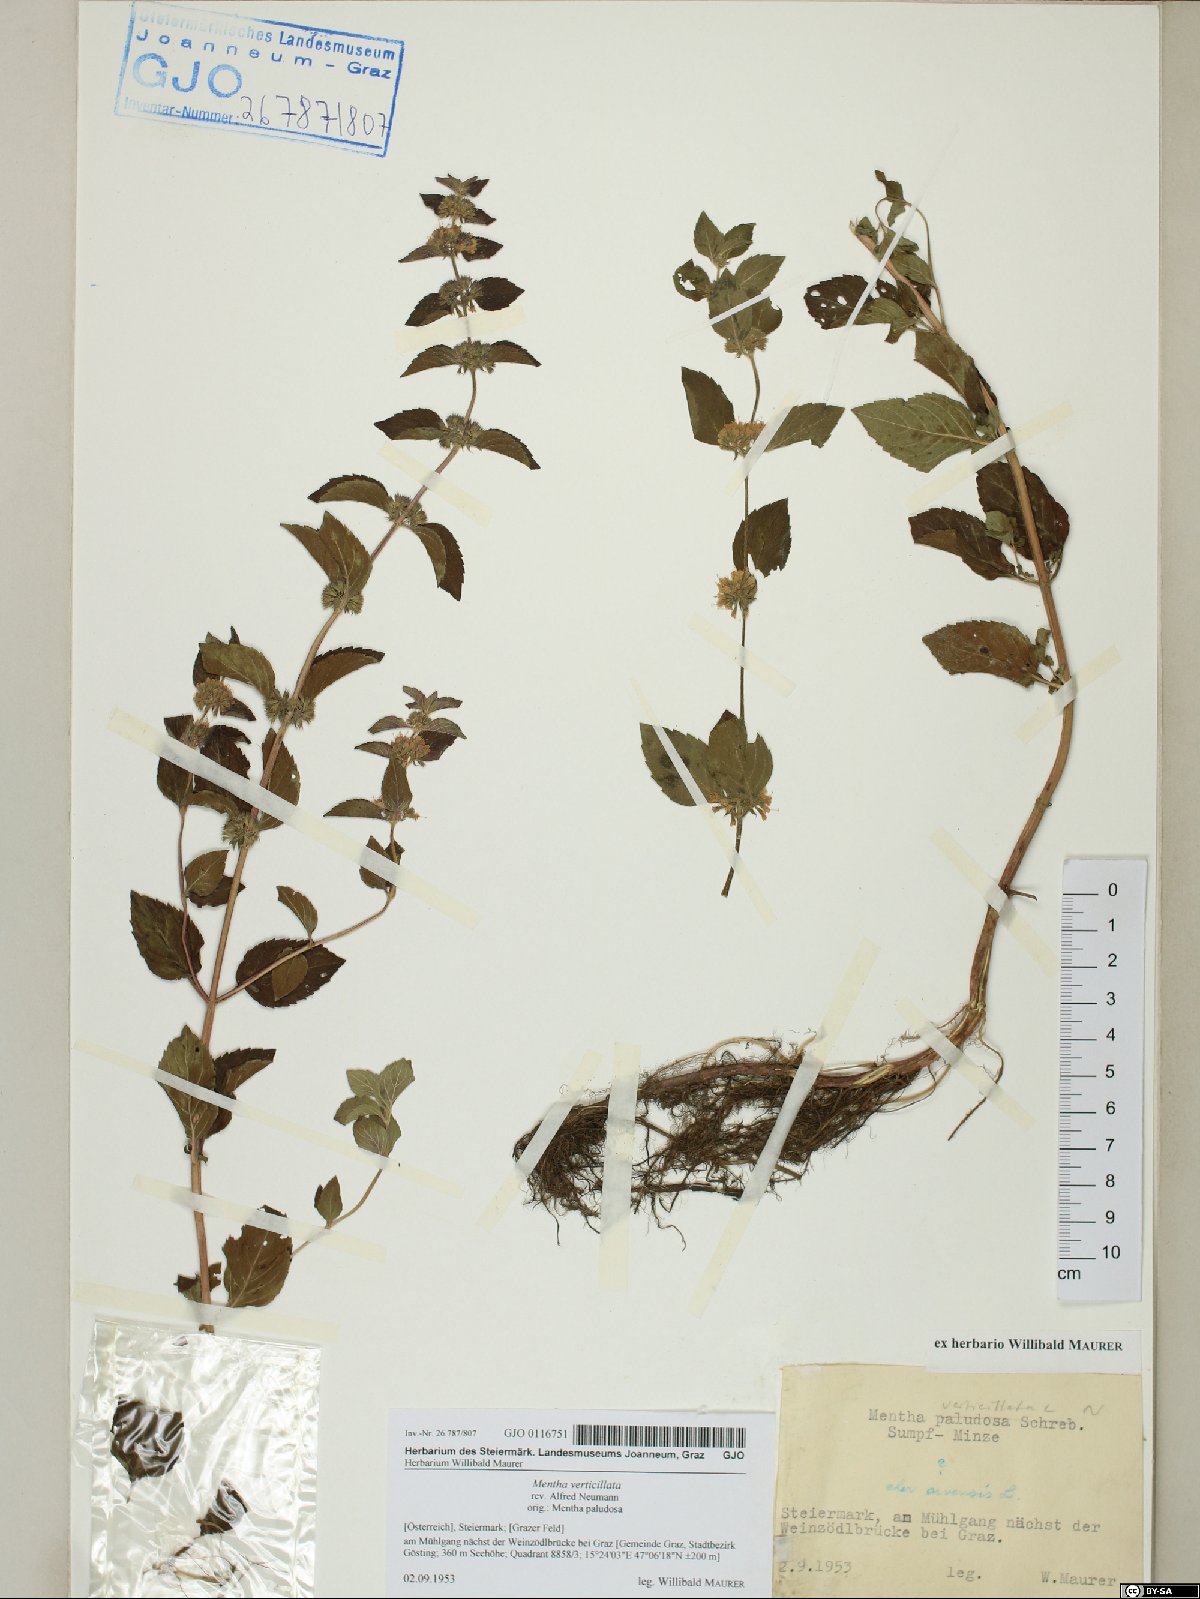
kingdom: Plantae
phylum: Tracheophyta
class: Magnoliopsida
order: Lamiales
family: Lamiaceae
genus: Mentha
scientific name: Mentha verticillata
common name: Mint
